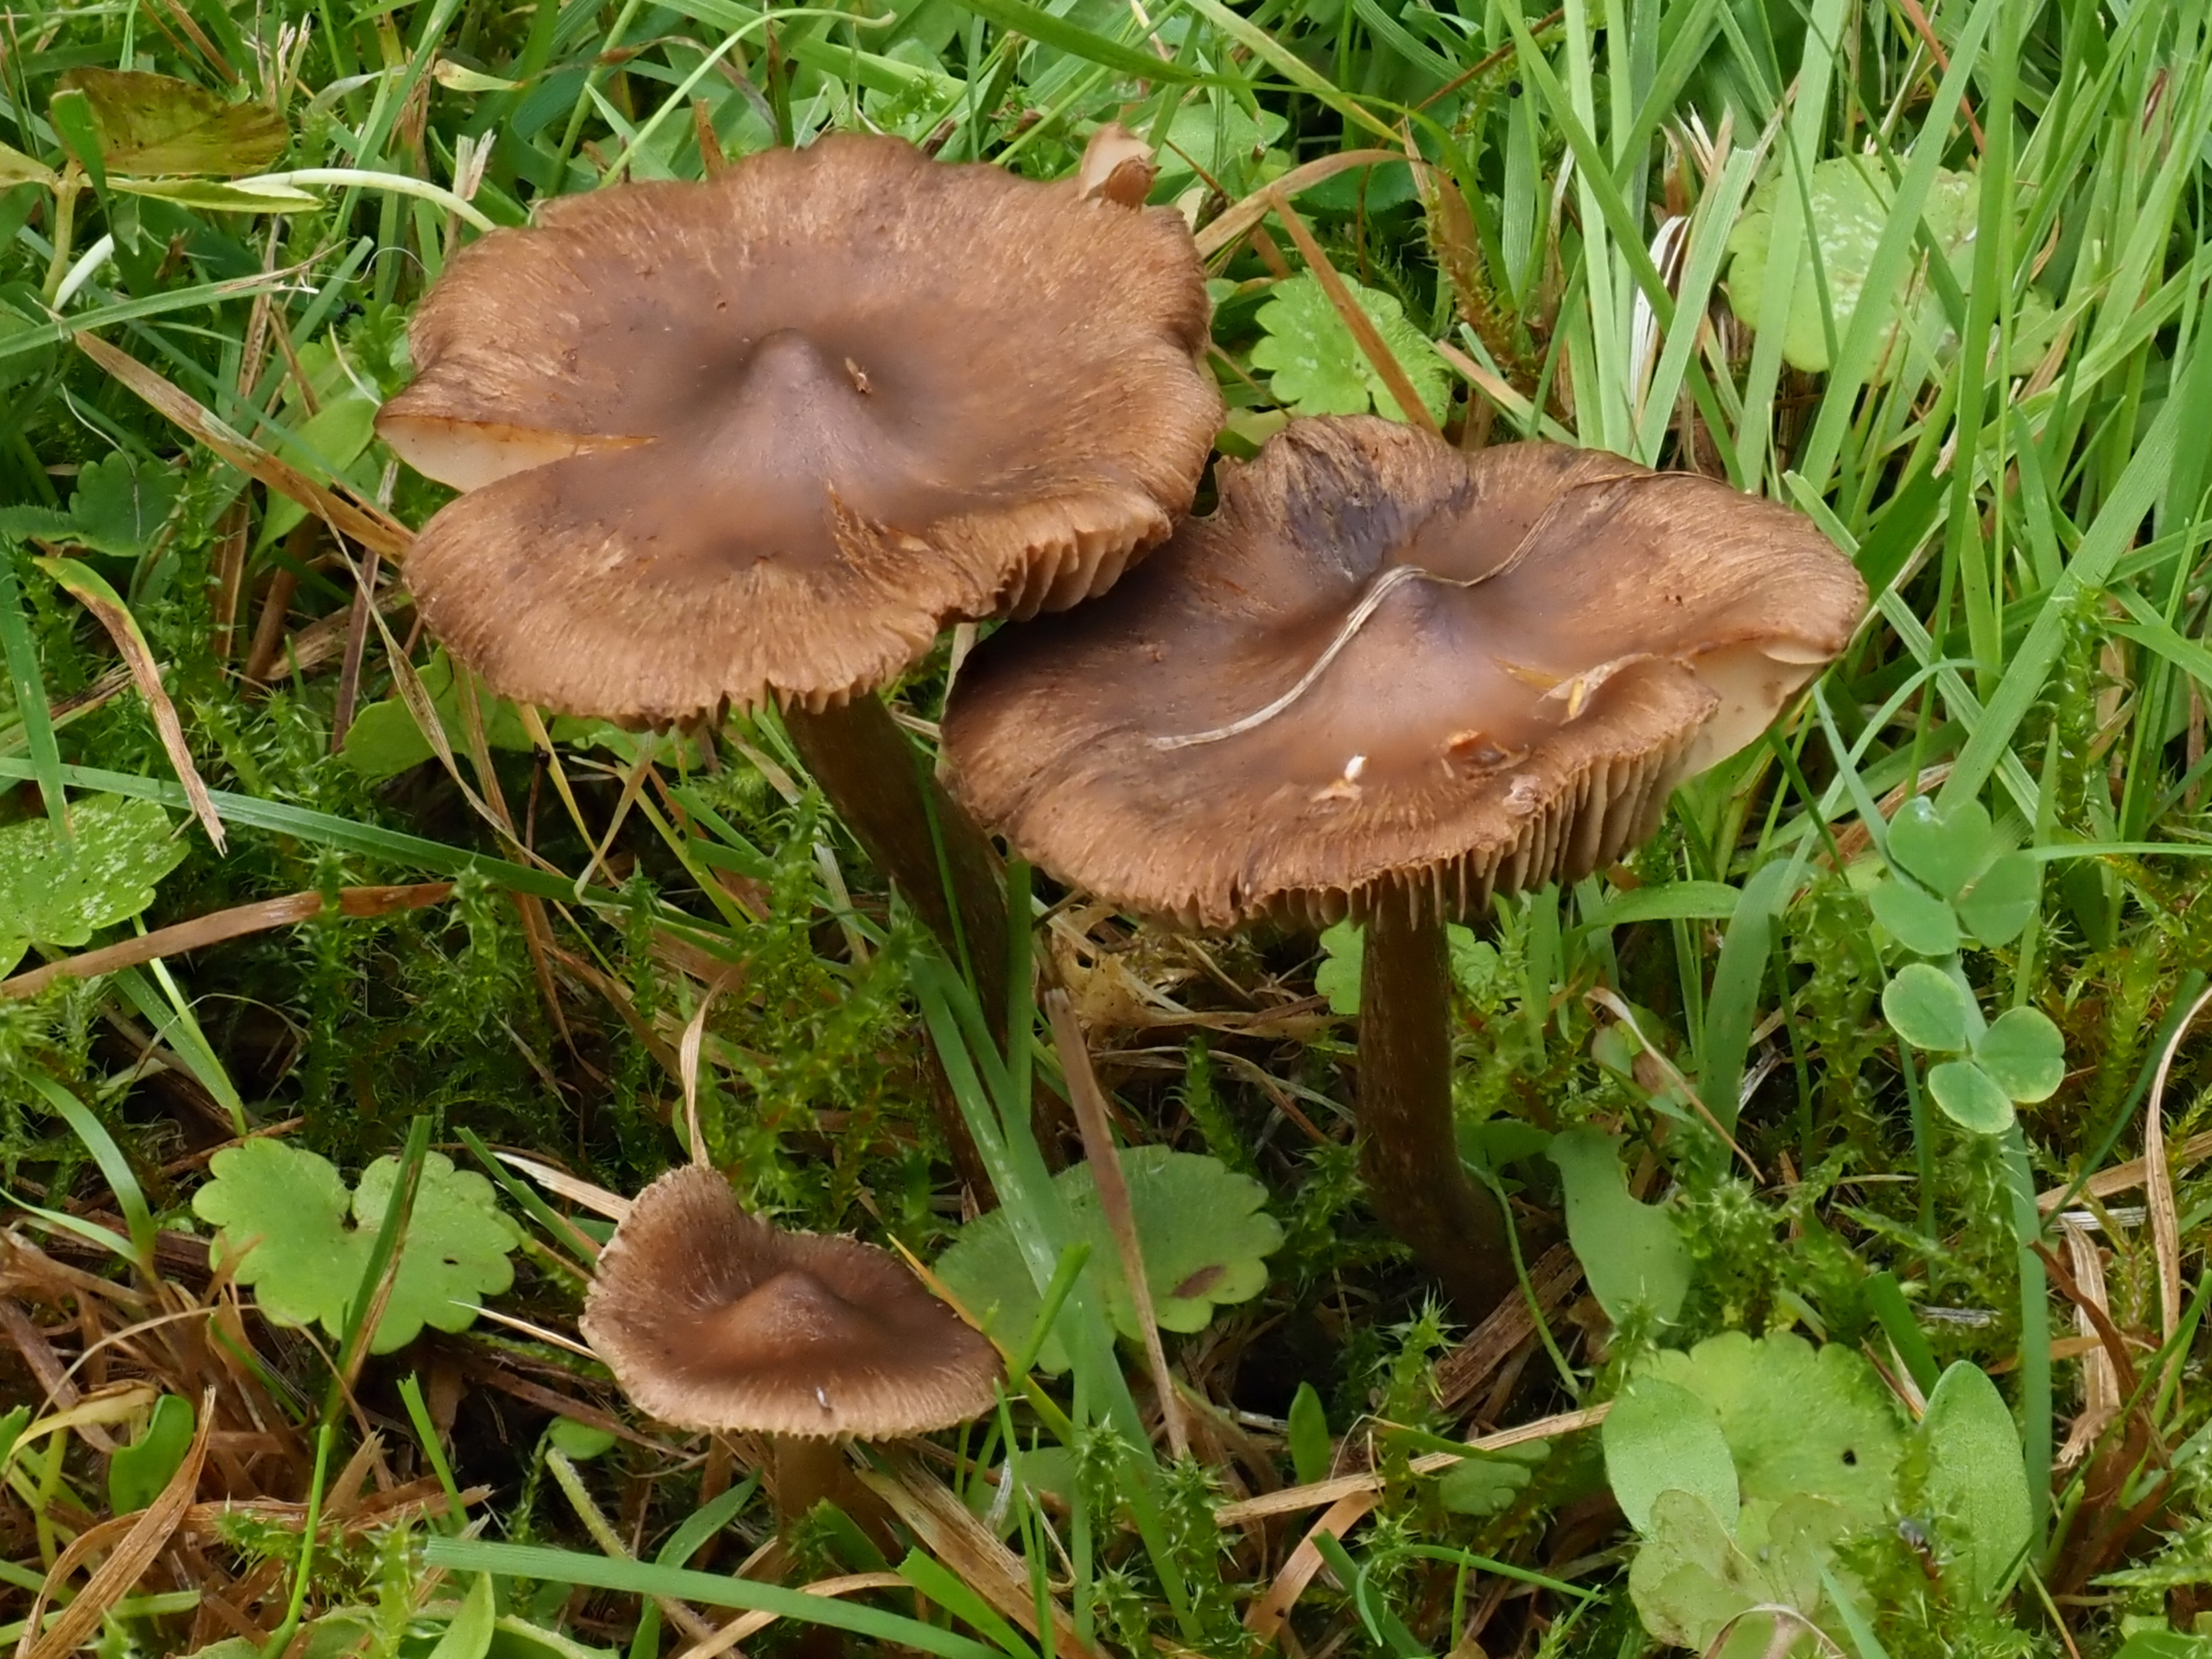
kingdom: Fungi
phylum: Basidiomycota
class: Agaricomycetes
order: Agaricales
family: Inocybaceae
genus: Inocybe
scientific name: Inocybe napipes
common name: Bulbous fibrecap
